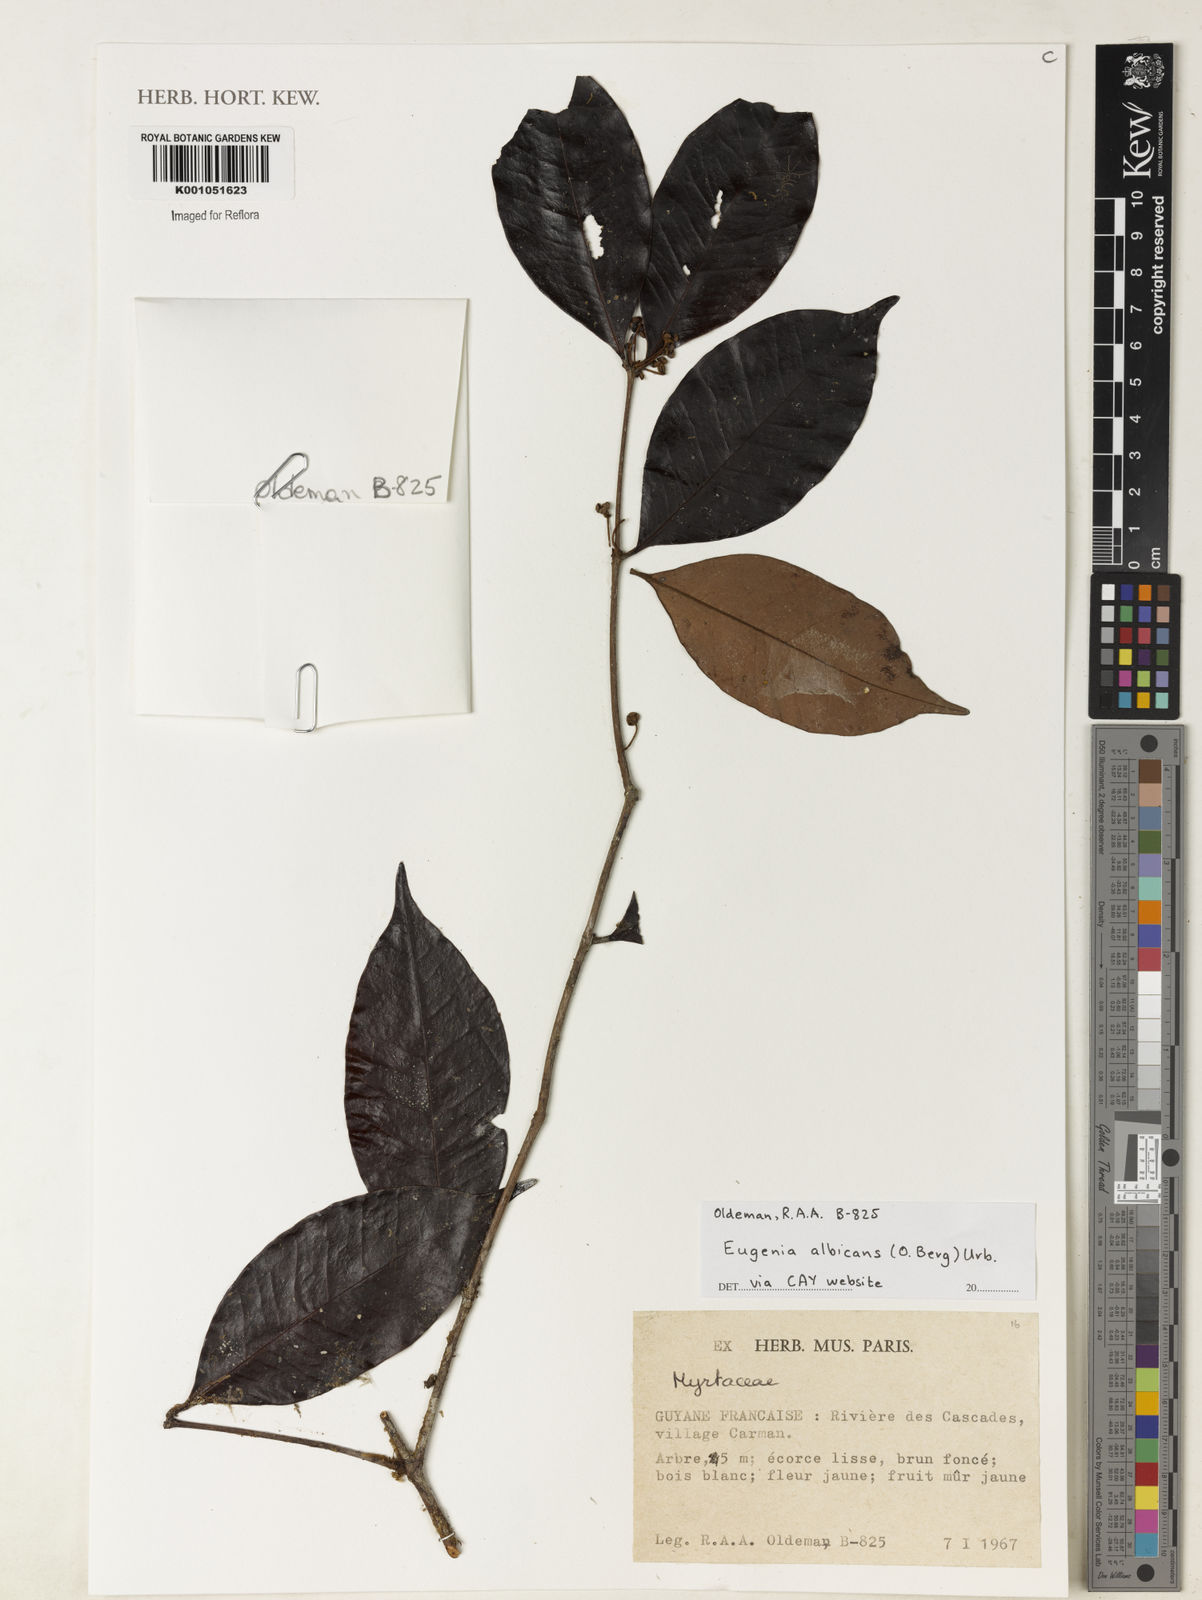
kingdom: Plantae
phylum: Tracheophyta
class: Magnoliopsida
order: Myrtales
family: Myrtaceae
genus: Eugenia
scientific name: Eugenia albicans
